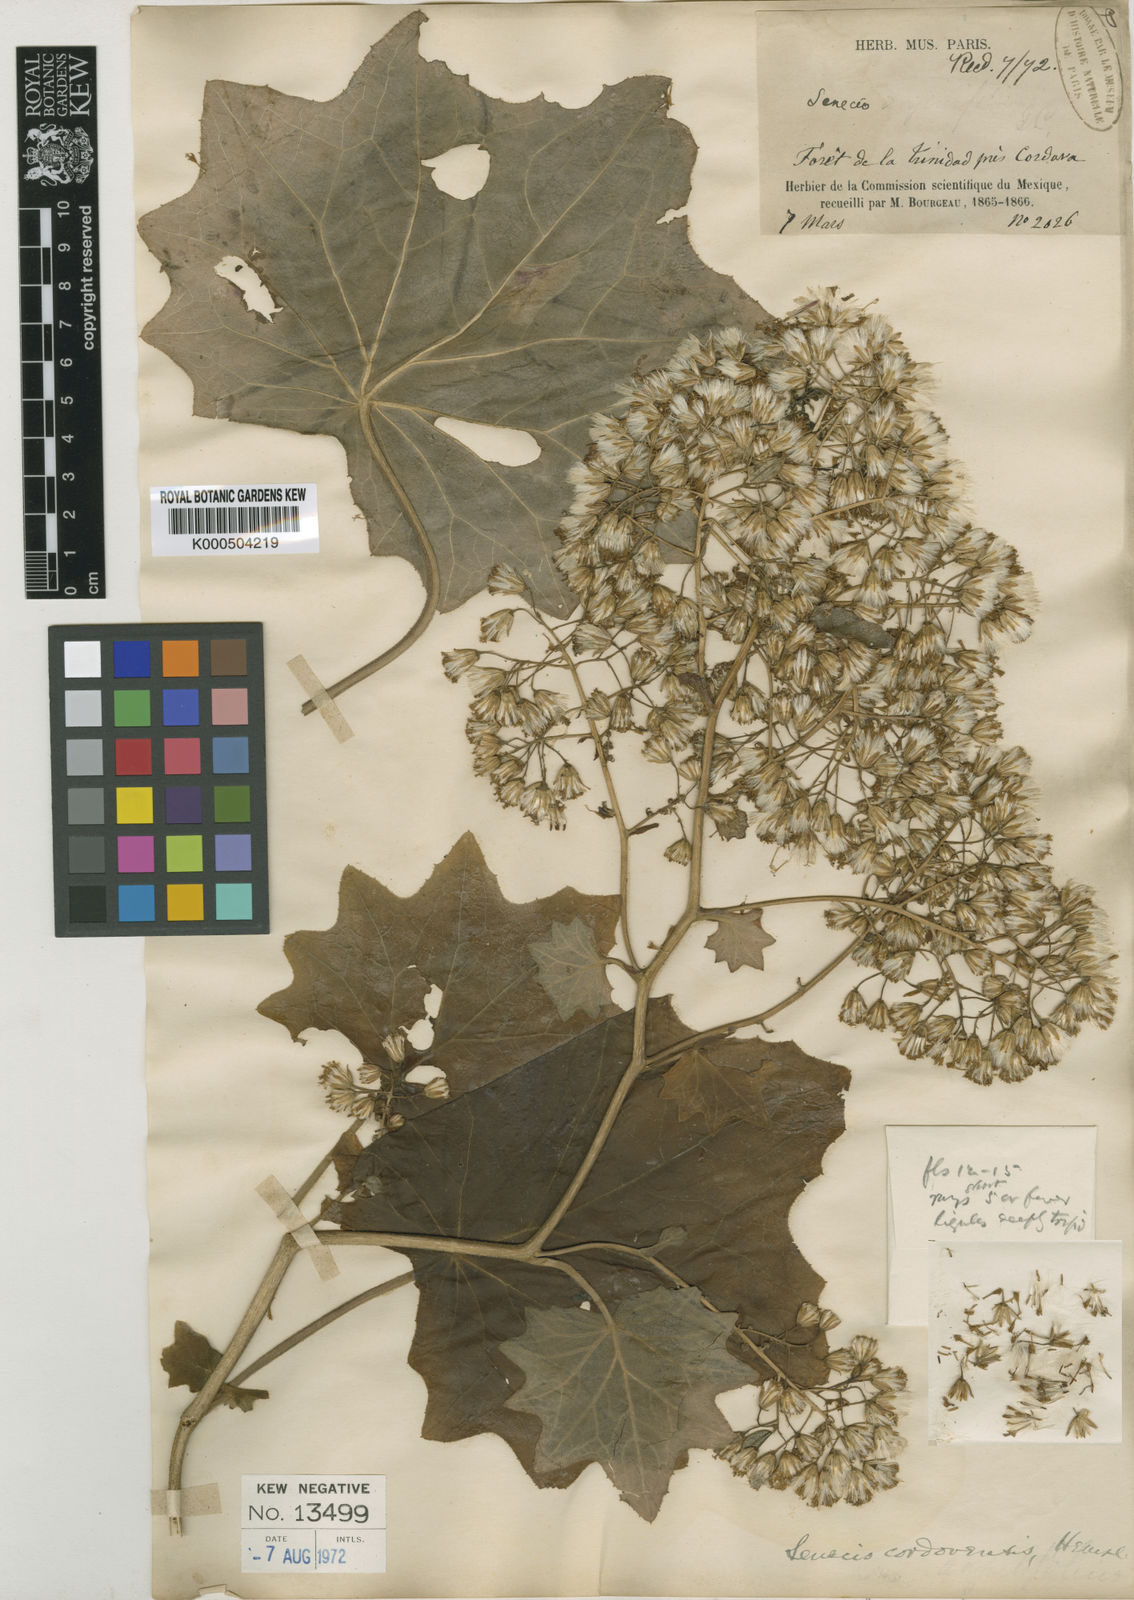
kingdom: Plantae
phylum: Tracheophyta
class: Magnoliopsida
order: Asterales
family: Asteraceae
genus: Roldana
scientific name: Roldana cordovensis
